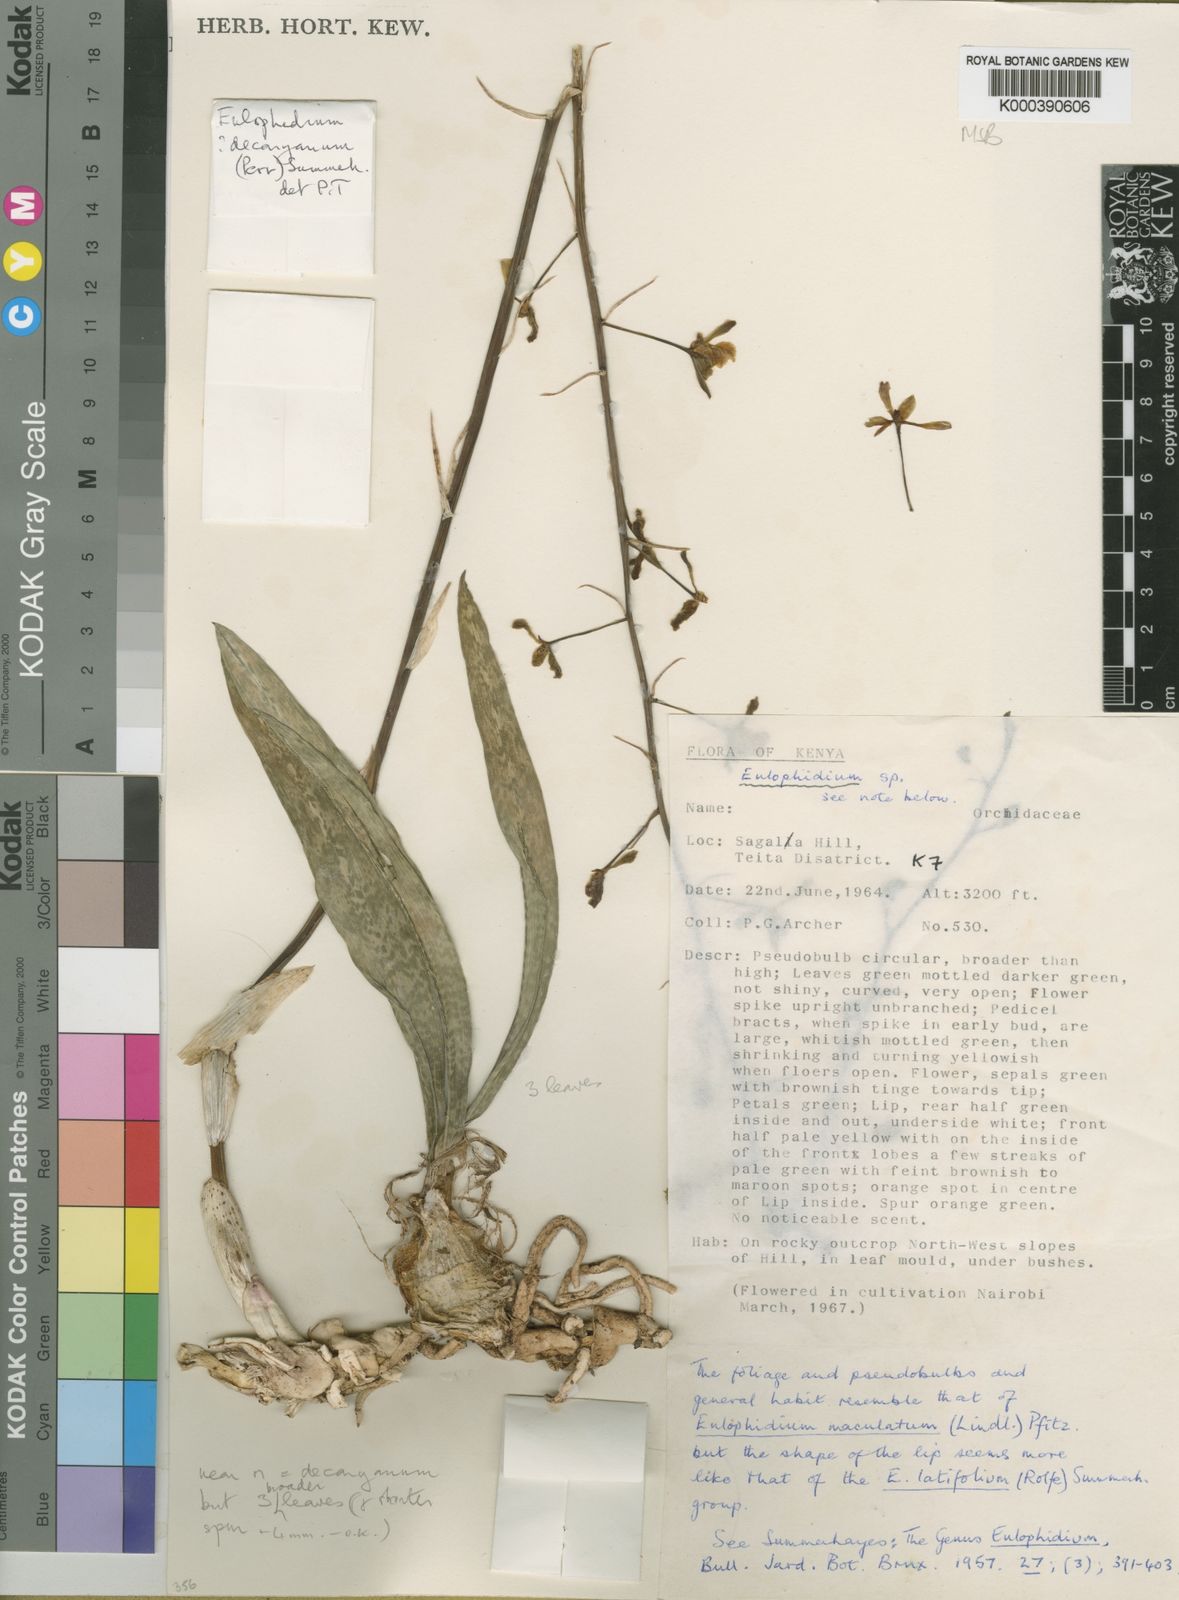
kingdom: Plantae
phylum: Tracheophyta
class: Liliopsida
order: Asparagales
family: Orchidaceae
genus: Eulophia
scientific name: Eulophia decaryana
